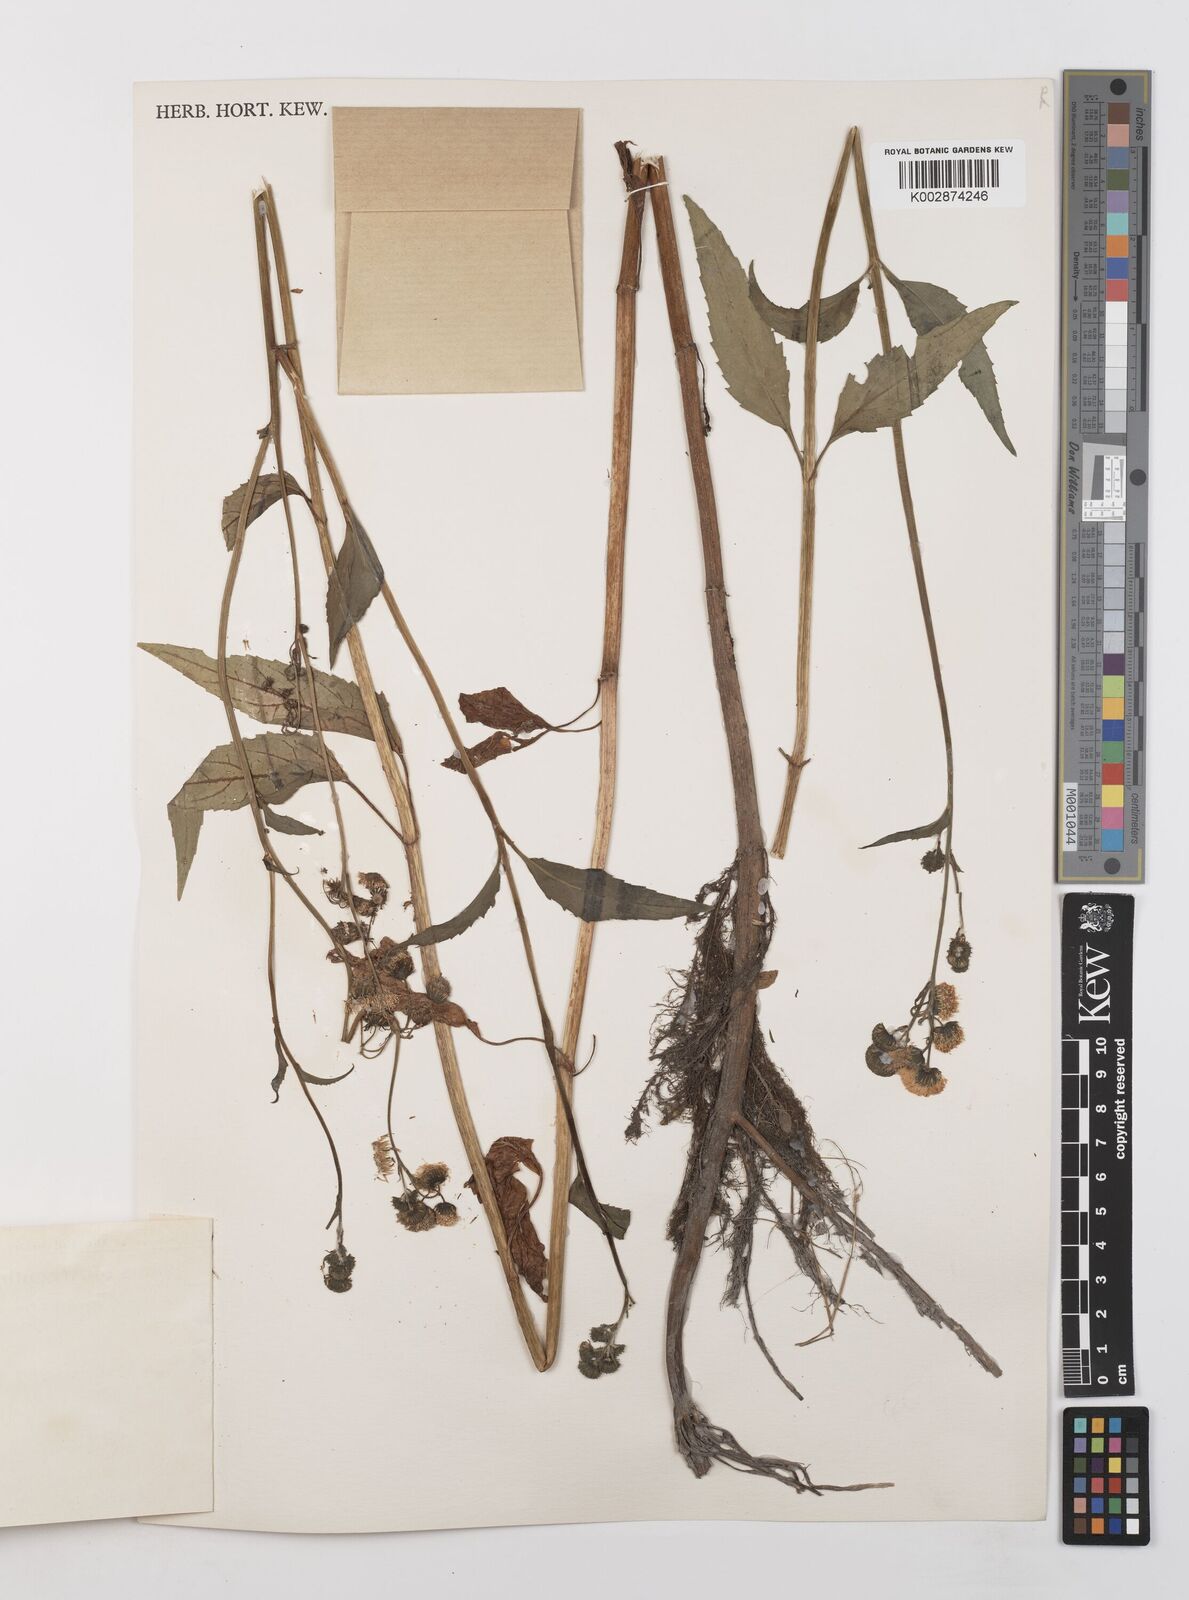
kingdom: Plantae
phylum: Tracheophyta
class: Magnoliopsida
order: Asterales
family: Asteraceae
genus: Gymnocoronis
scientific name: Gymnocoronis spilanthoides
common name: Senegal teaplant
